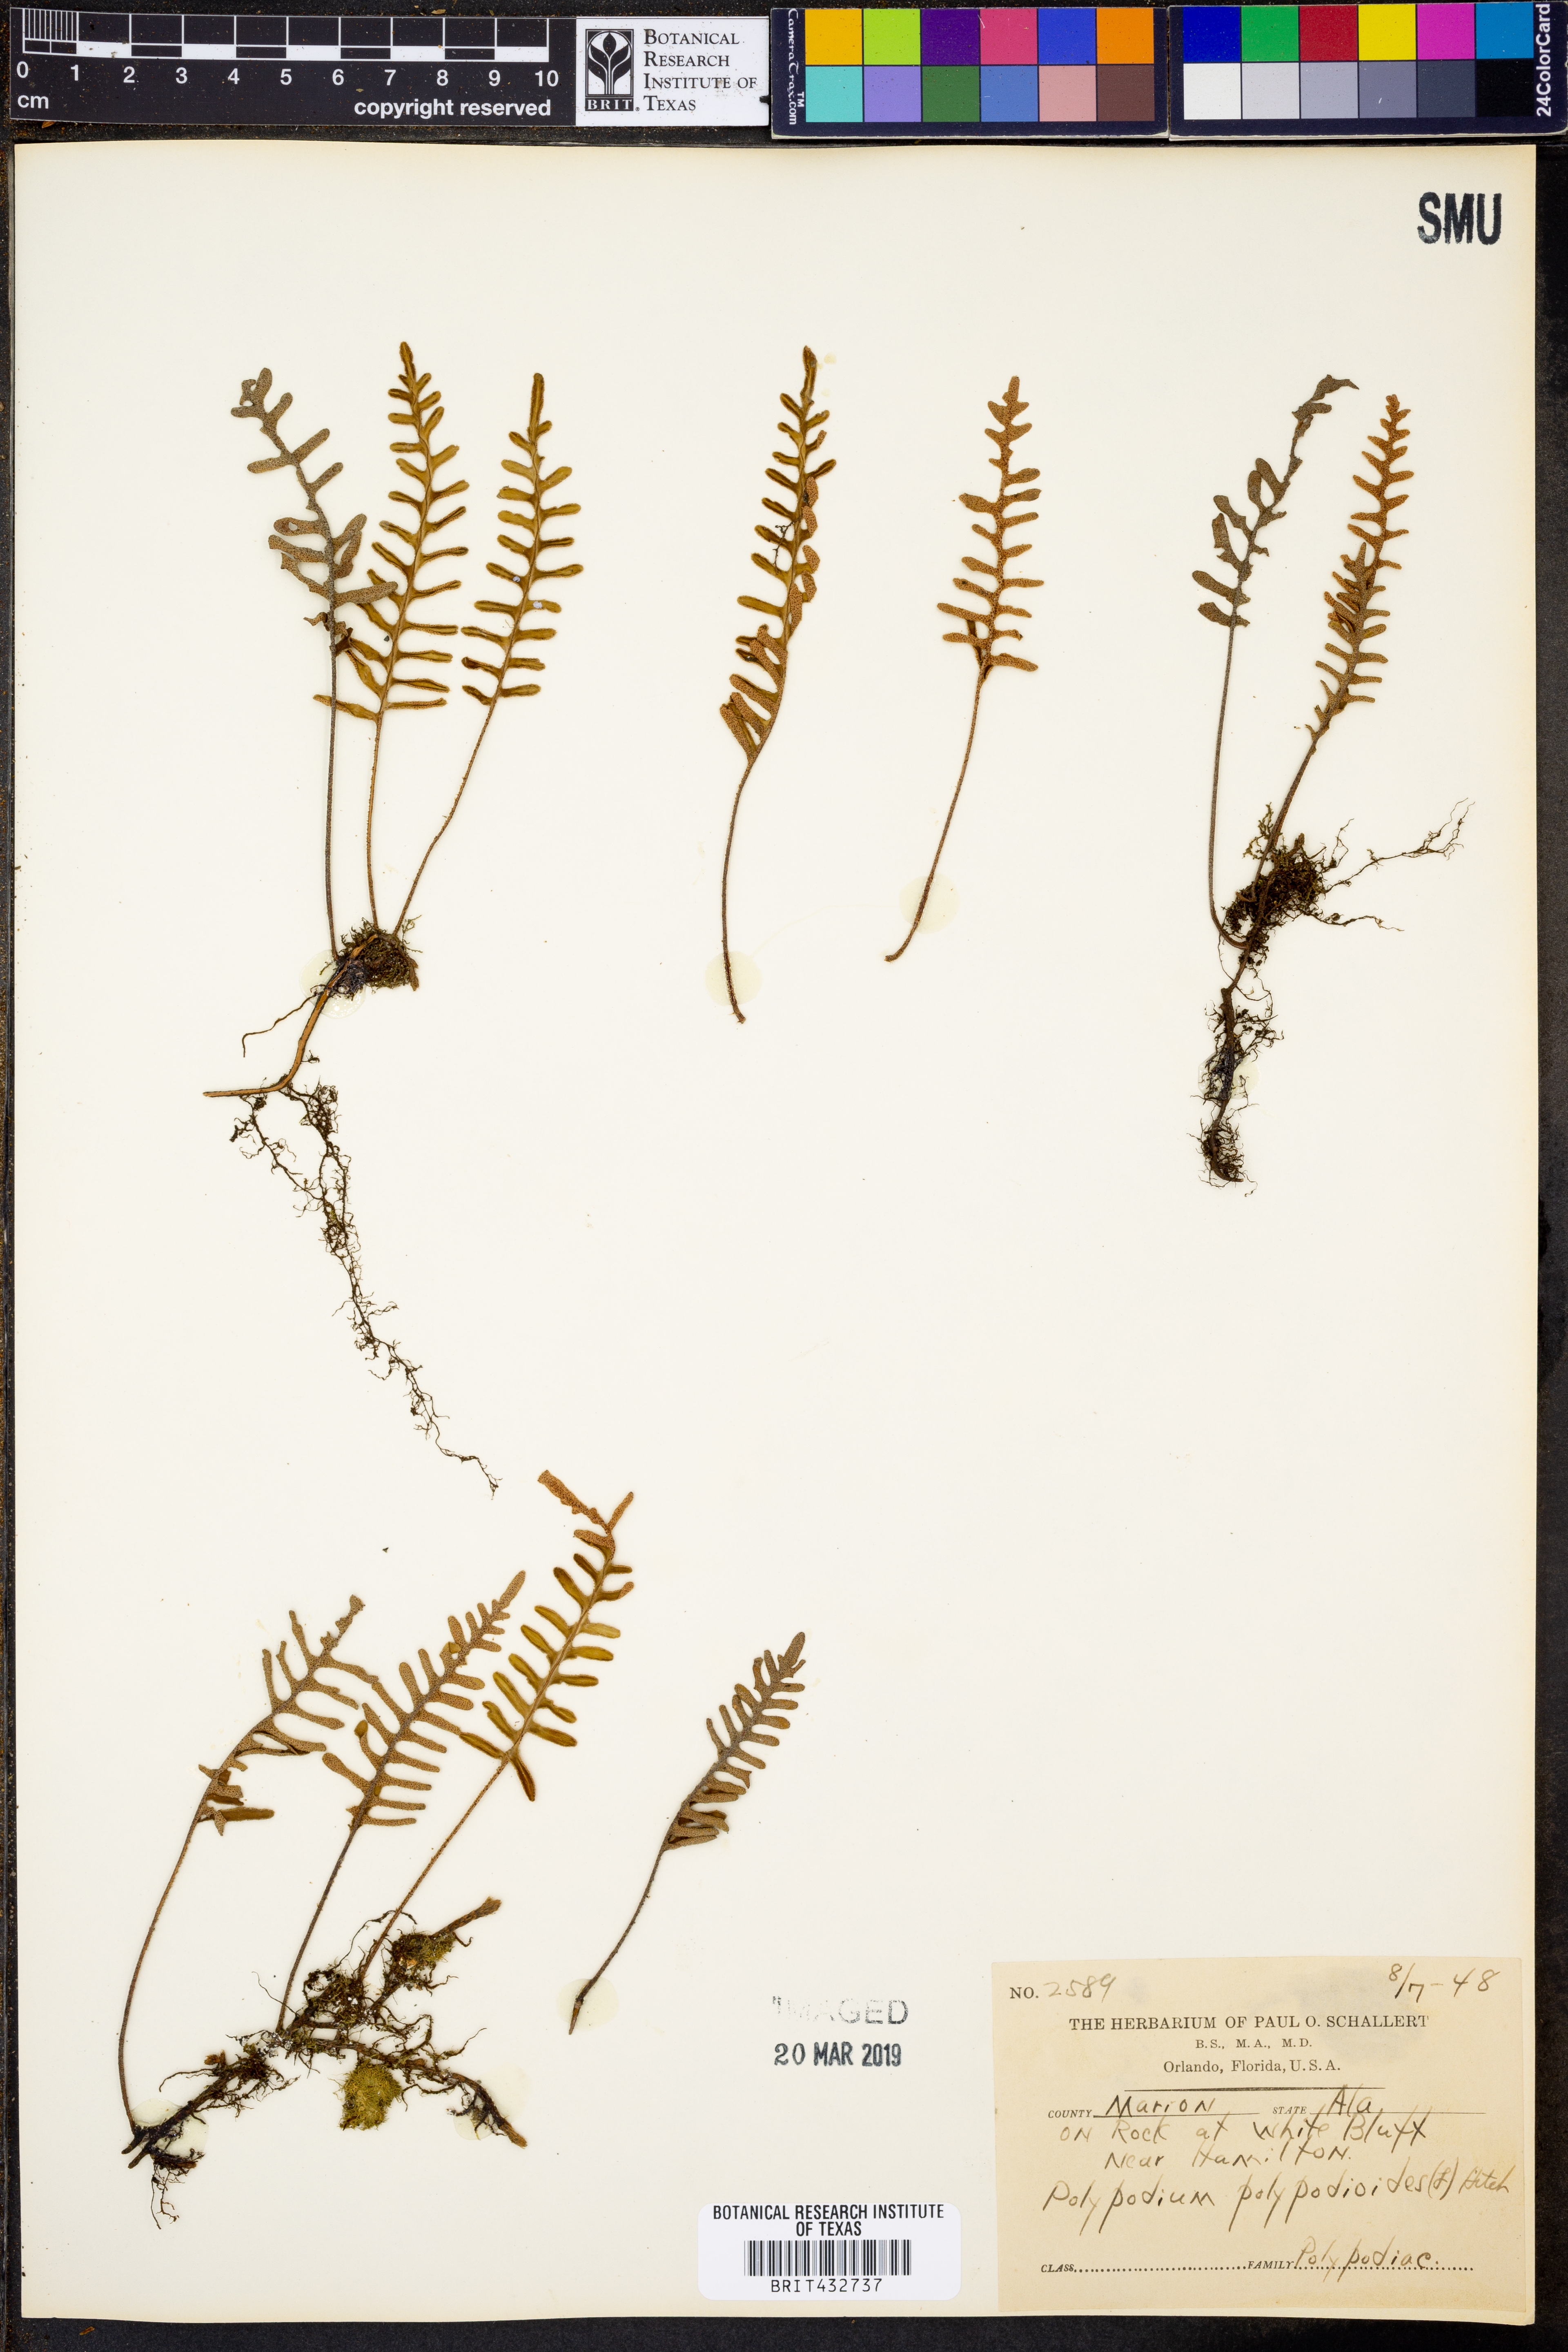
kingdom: Plantae
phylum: Tracheophyta
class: Polypodiopsida
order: Polypodiales
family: Polypodiaceae
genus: Pleopeltis
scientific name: Pleopeltis michauxiana
